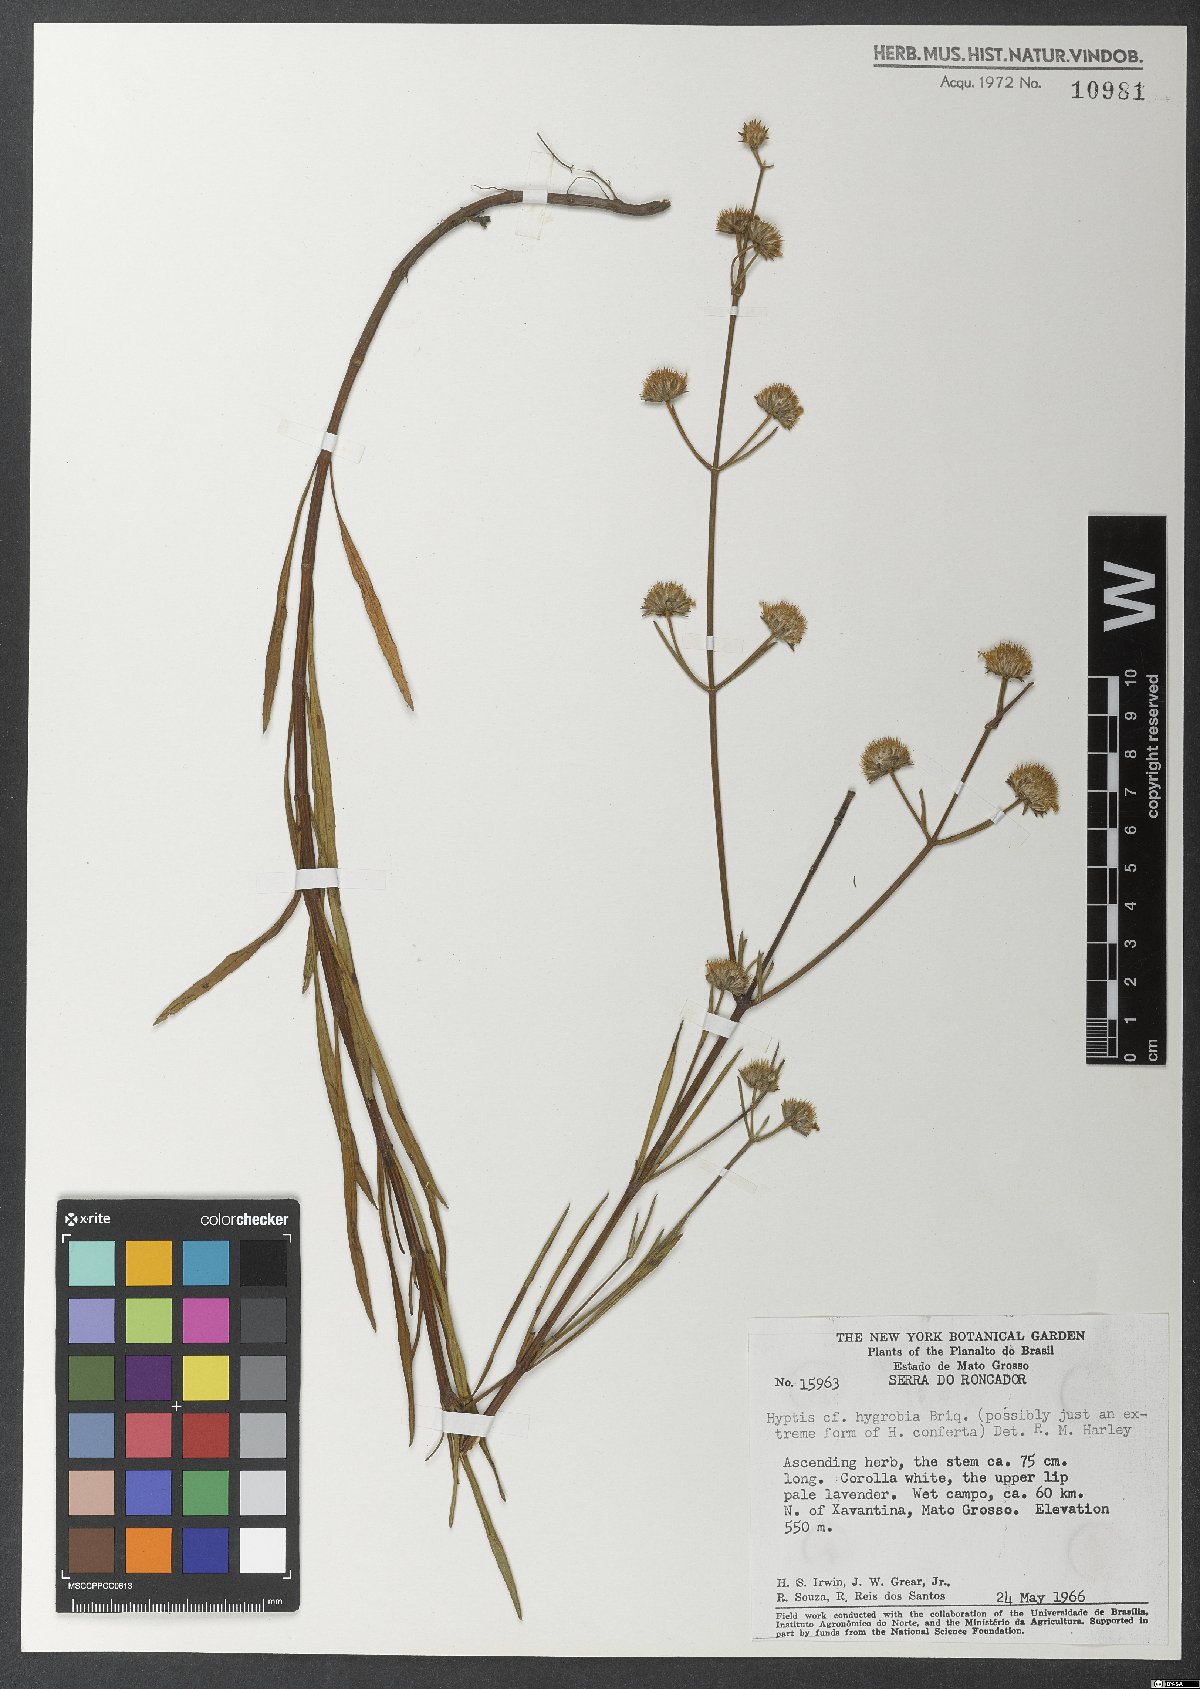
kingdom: Plantae
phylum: Tracheophyta
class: Magnoliopsida
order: Lamiales
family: Lamiaceae
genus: Hyptis
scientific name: Hyptis hygrobia
